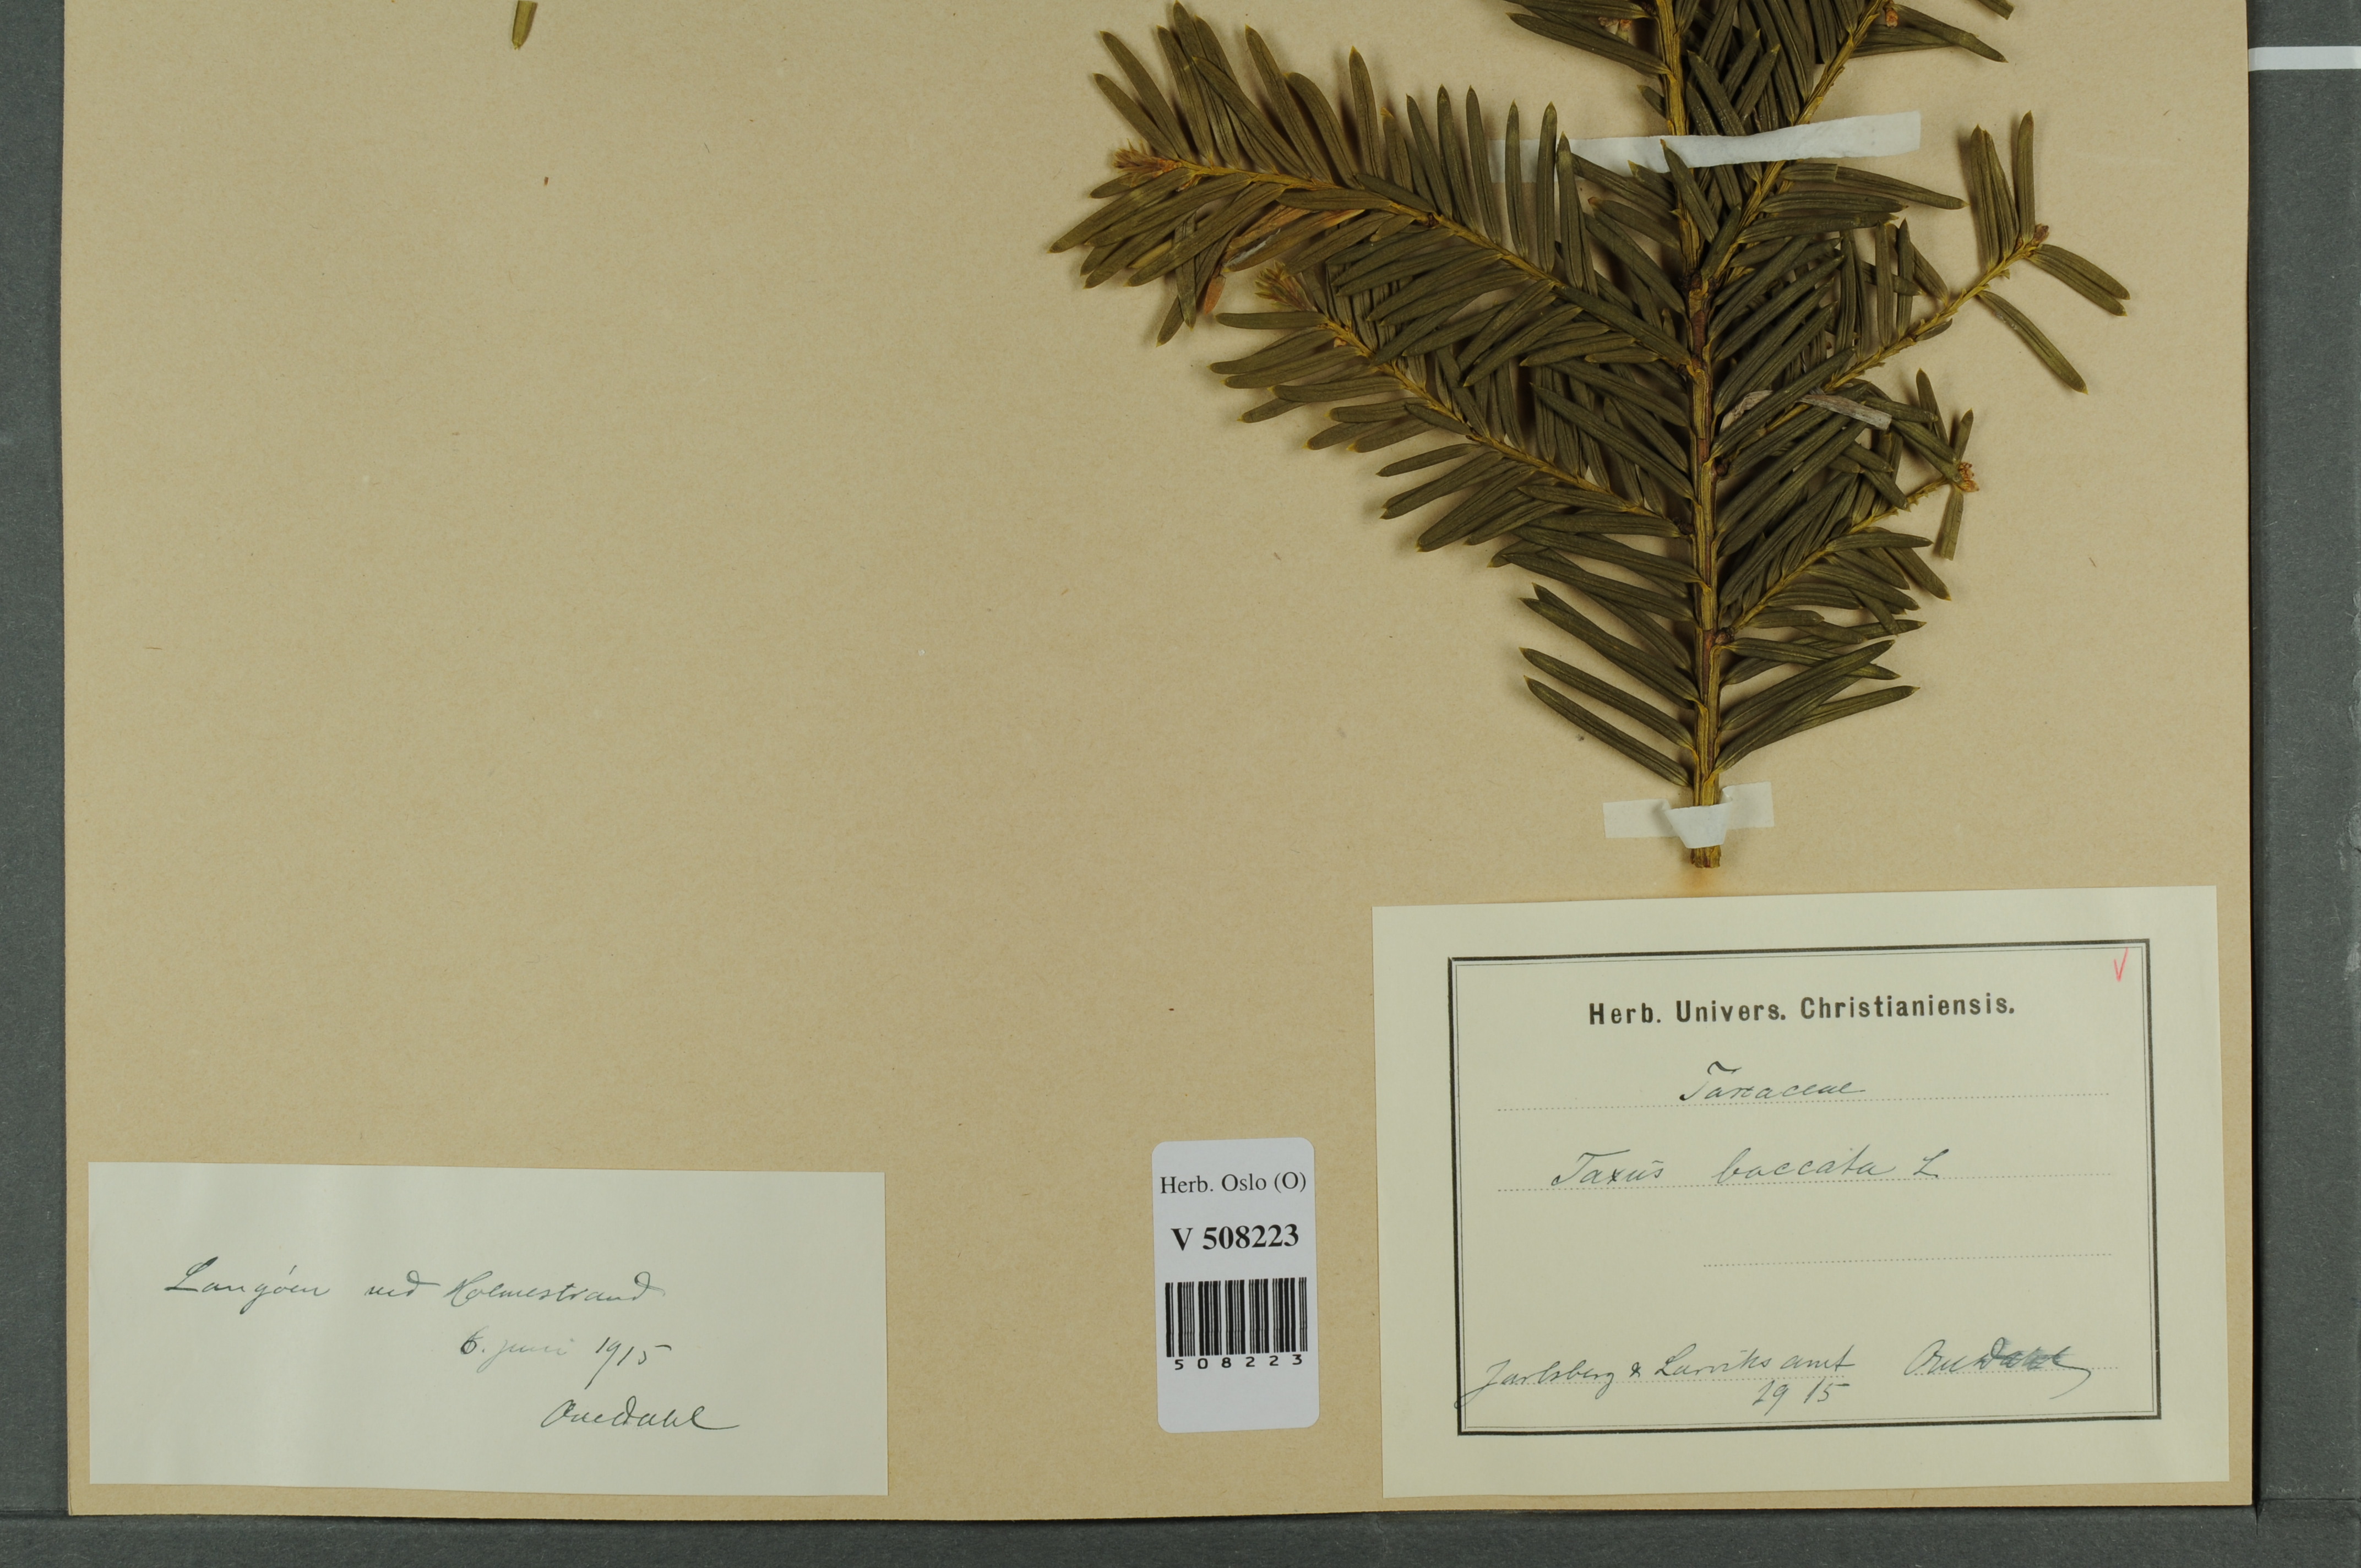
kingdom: Plantae
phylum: Tracheophyta
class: Pinopsida
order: Pinales
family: Taxaceae
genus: Taxus
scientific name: Taxus baccata
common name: Yew
